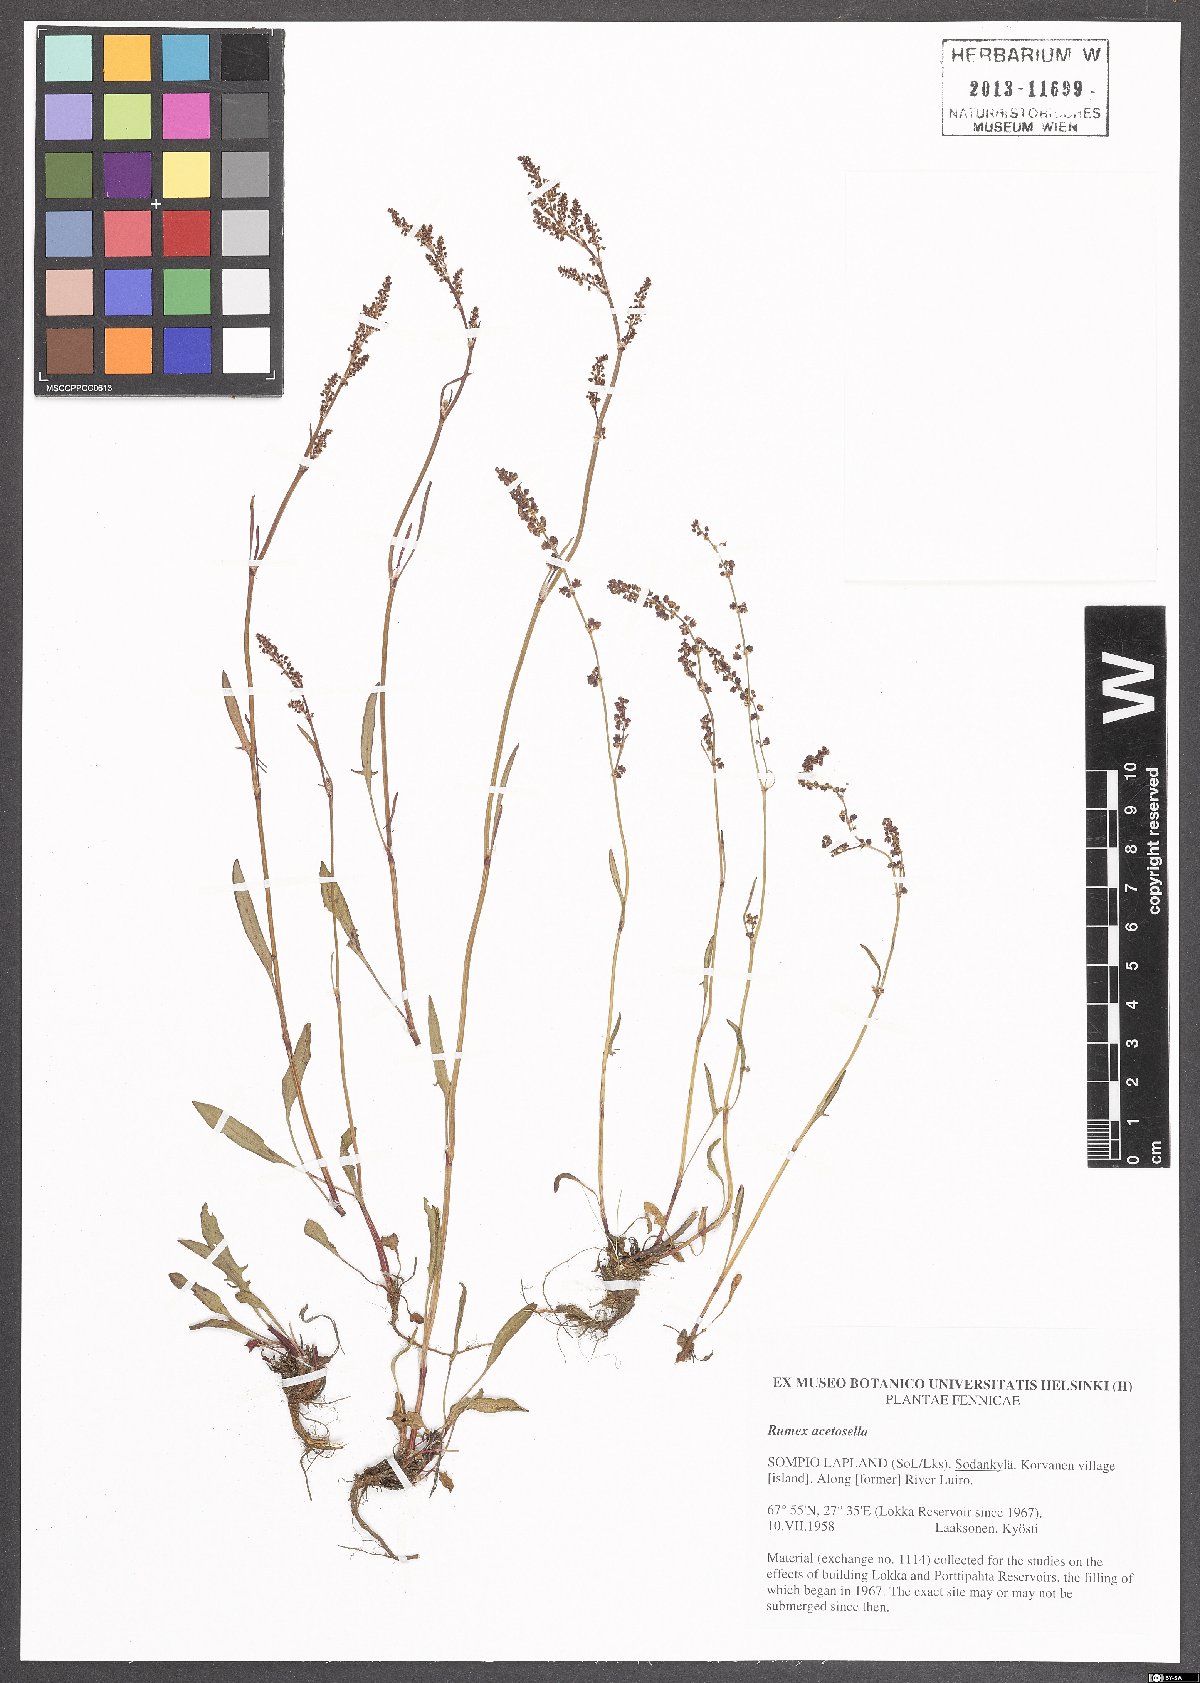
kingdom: Plantae
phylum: Tracheophyta
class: Magnoliopsida
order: Caryophyllales
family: Polygonaceae
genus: Rumex
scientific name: Rumex acetosella
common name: Common sheep sorrel
